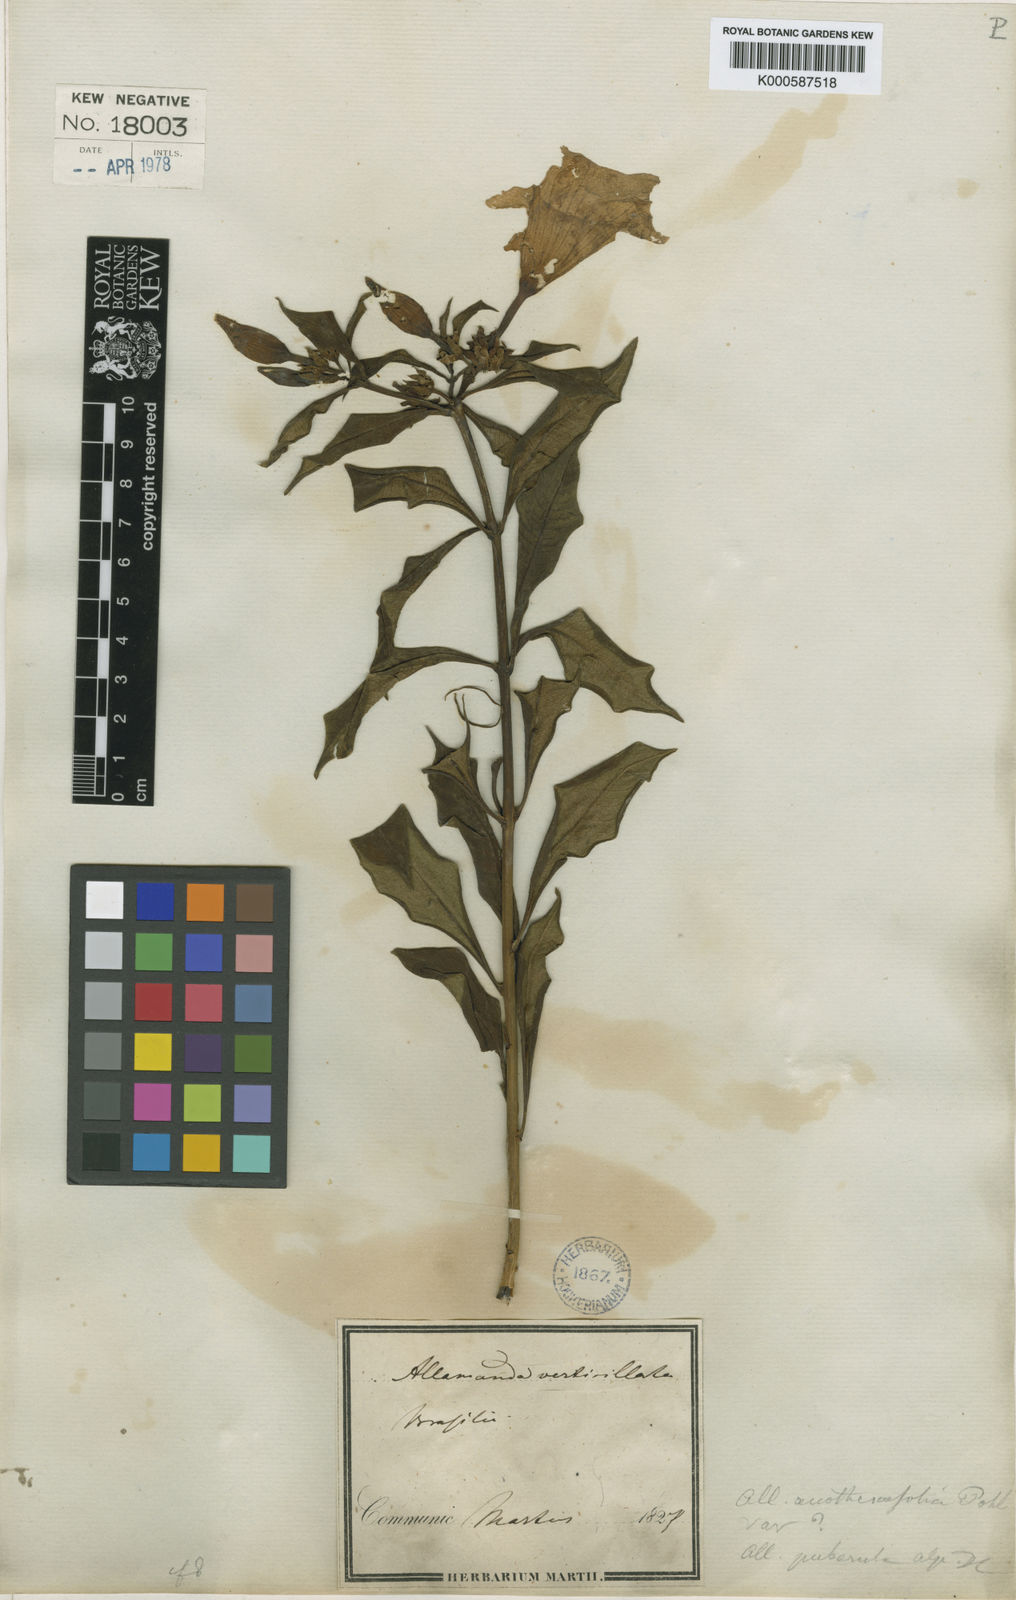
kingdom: Plantae
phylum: Tracheophyta
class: Magnoliopsida
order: Gentianales
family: Apocynaceae
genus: Allamanda
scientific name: Allamanda puberula
